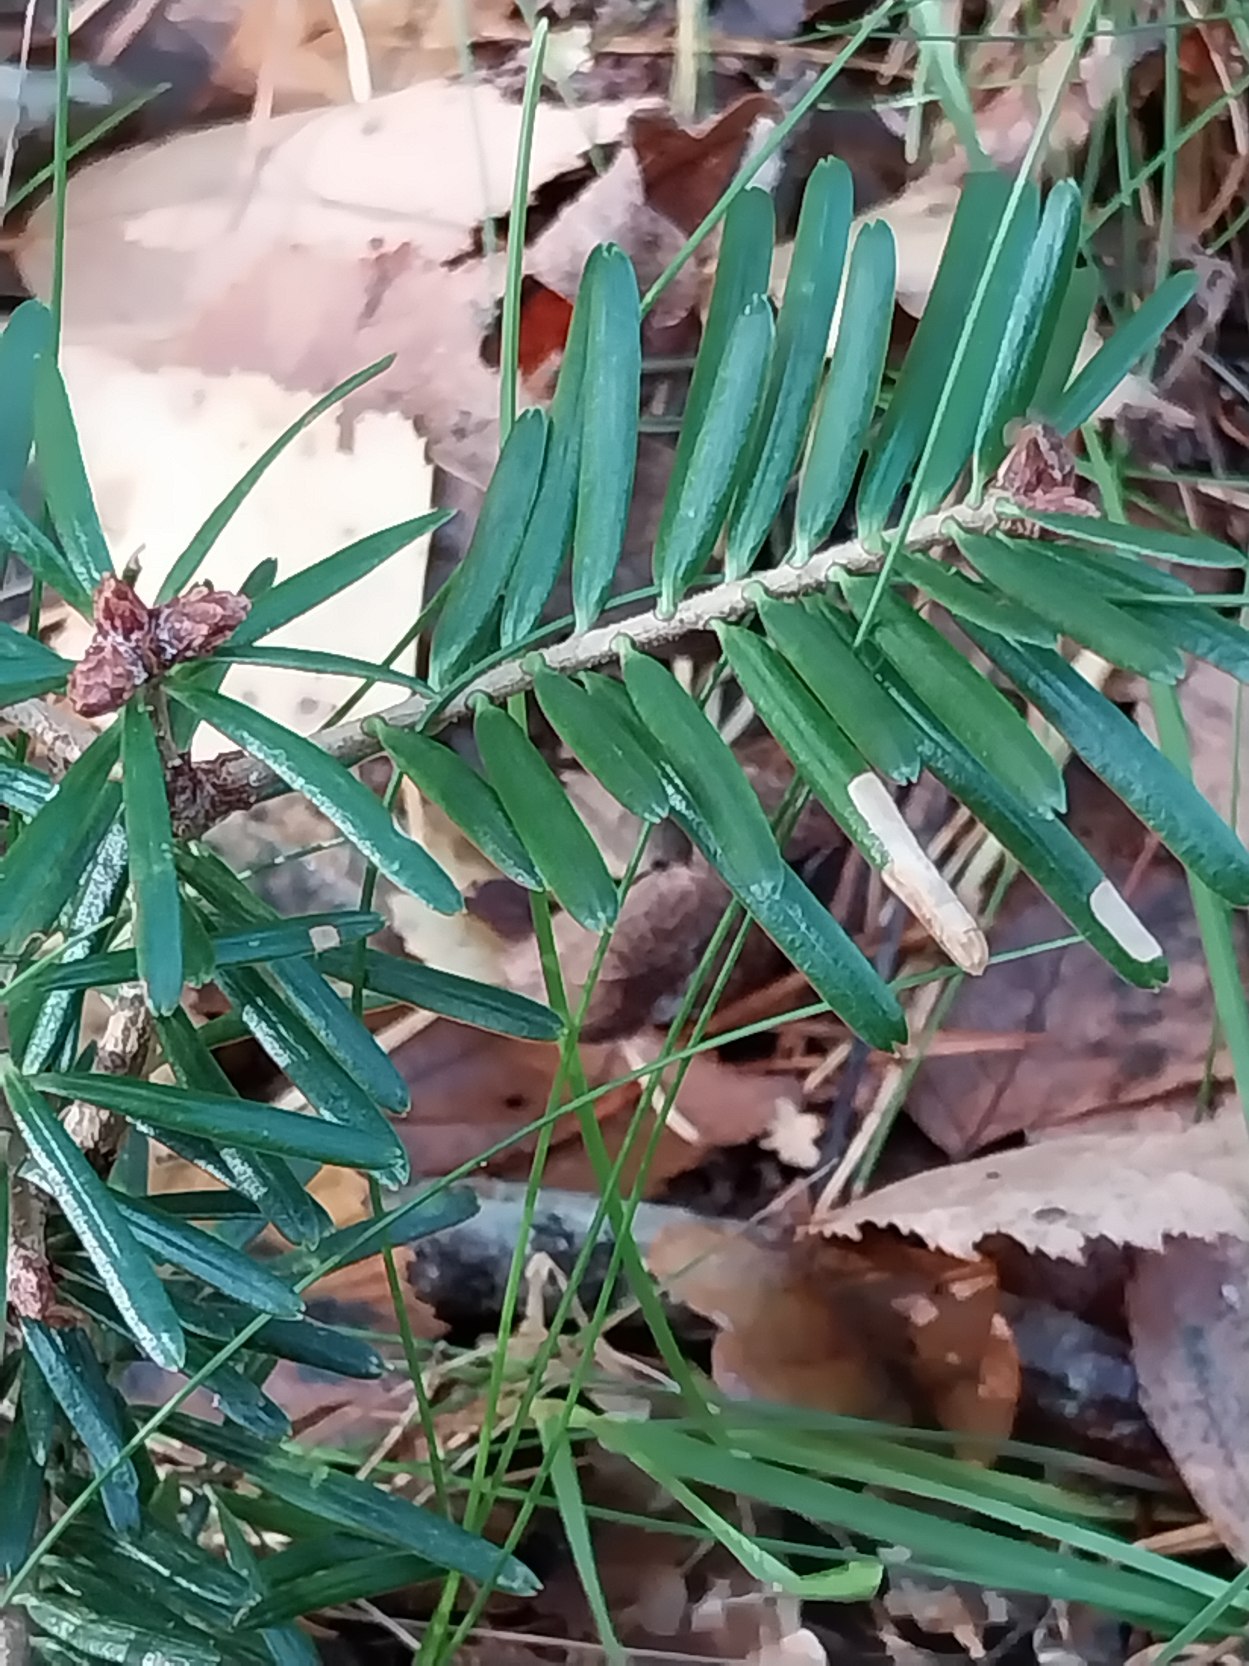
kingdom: Plantae
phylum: Tracheophyta
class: Pinopsida
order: Pinales
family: Pinaceae
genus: Abies
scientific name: Abies alba
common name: Almindelig ædelgran
